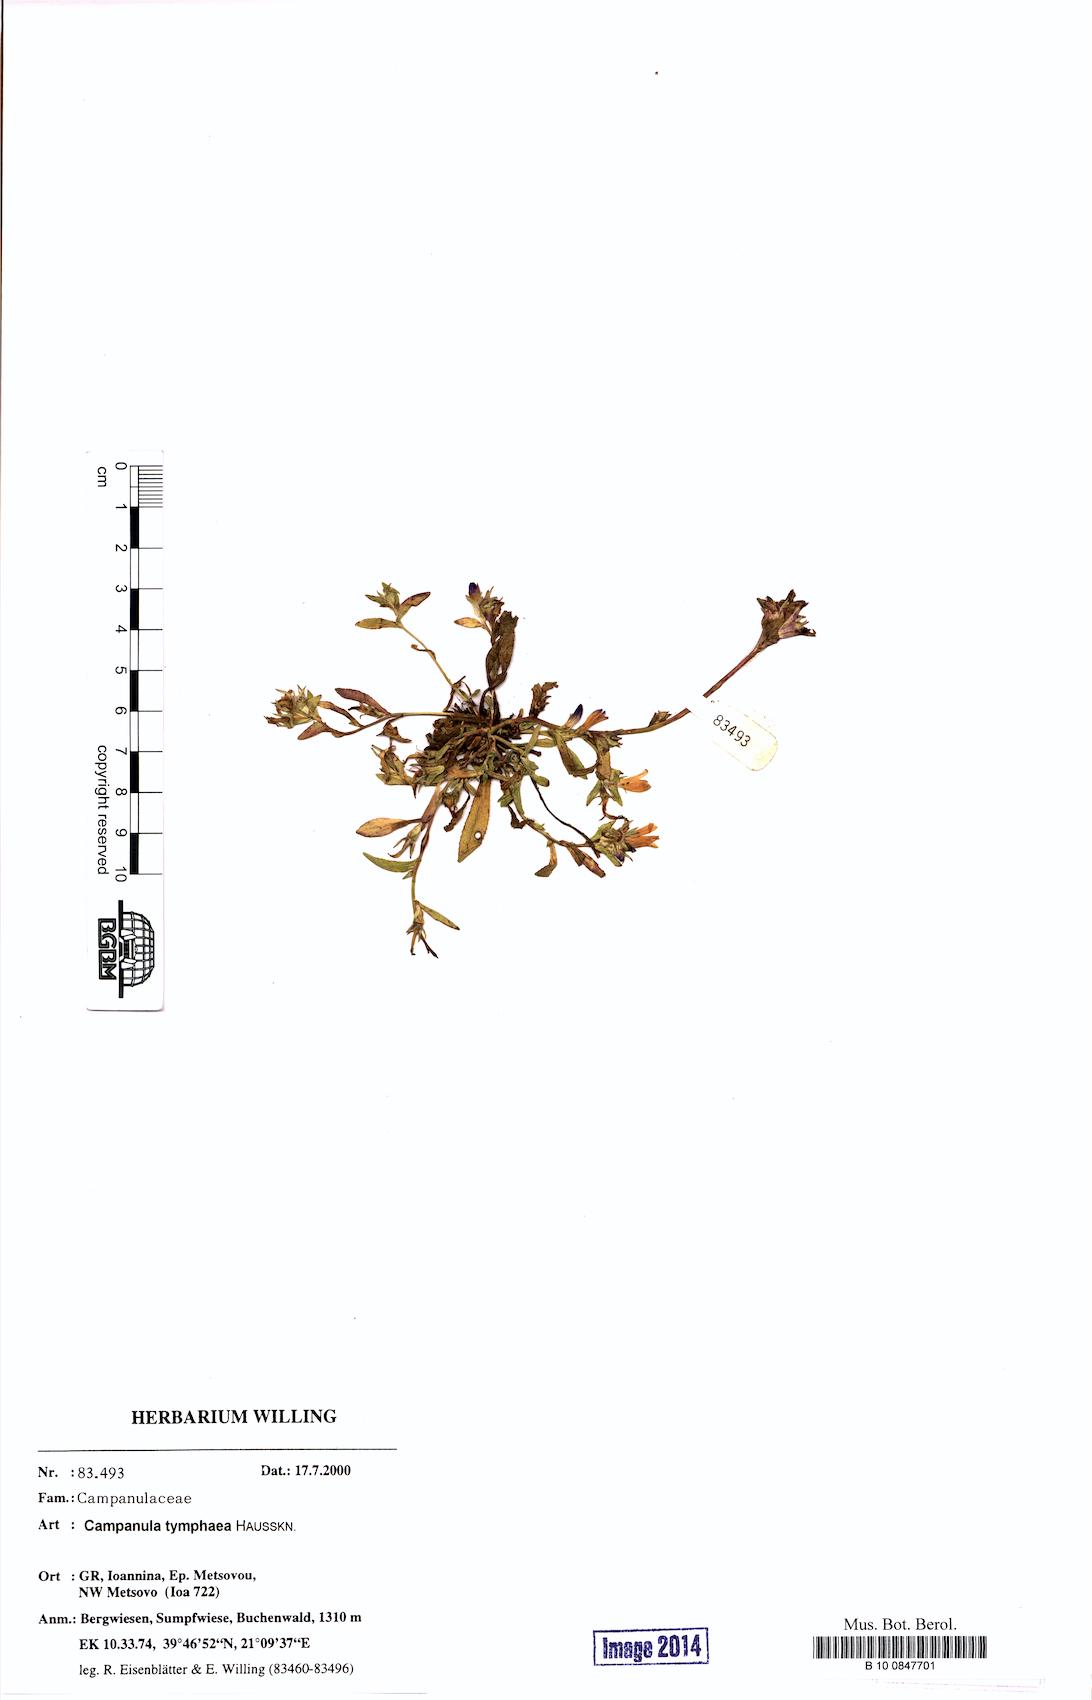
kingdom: Plantae
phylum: Tracheophyta
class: Magnoliopsida
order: Asterales
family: Campanulaceae
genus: Campanula
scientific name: Campanula tymphaea
